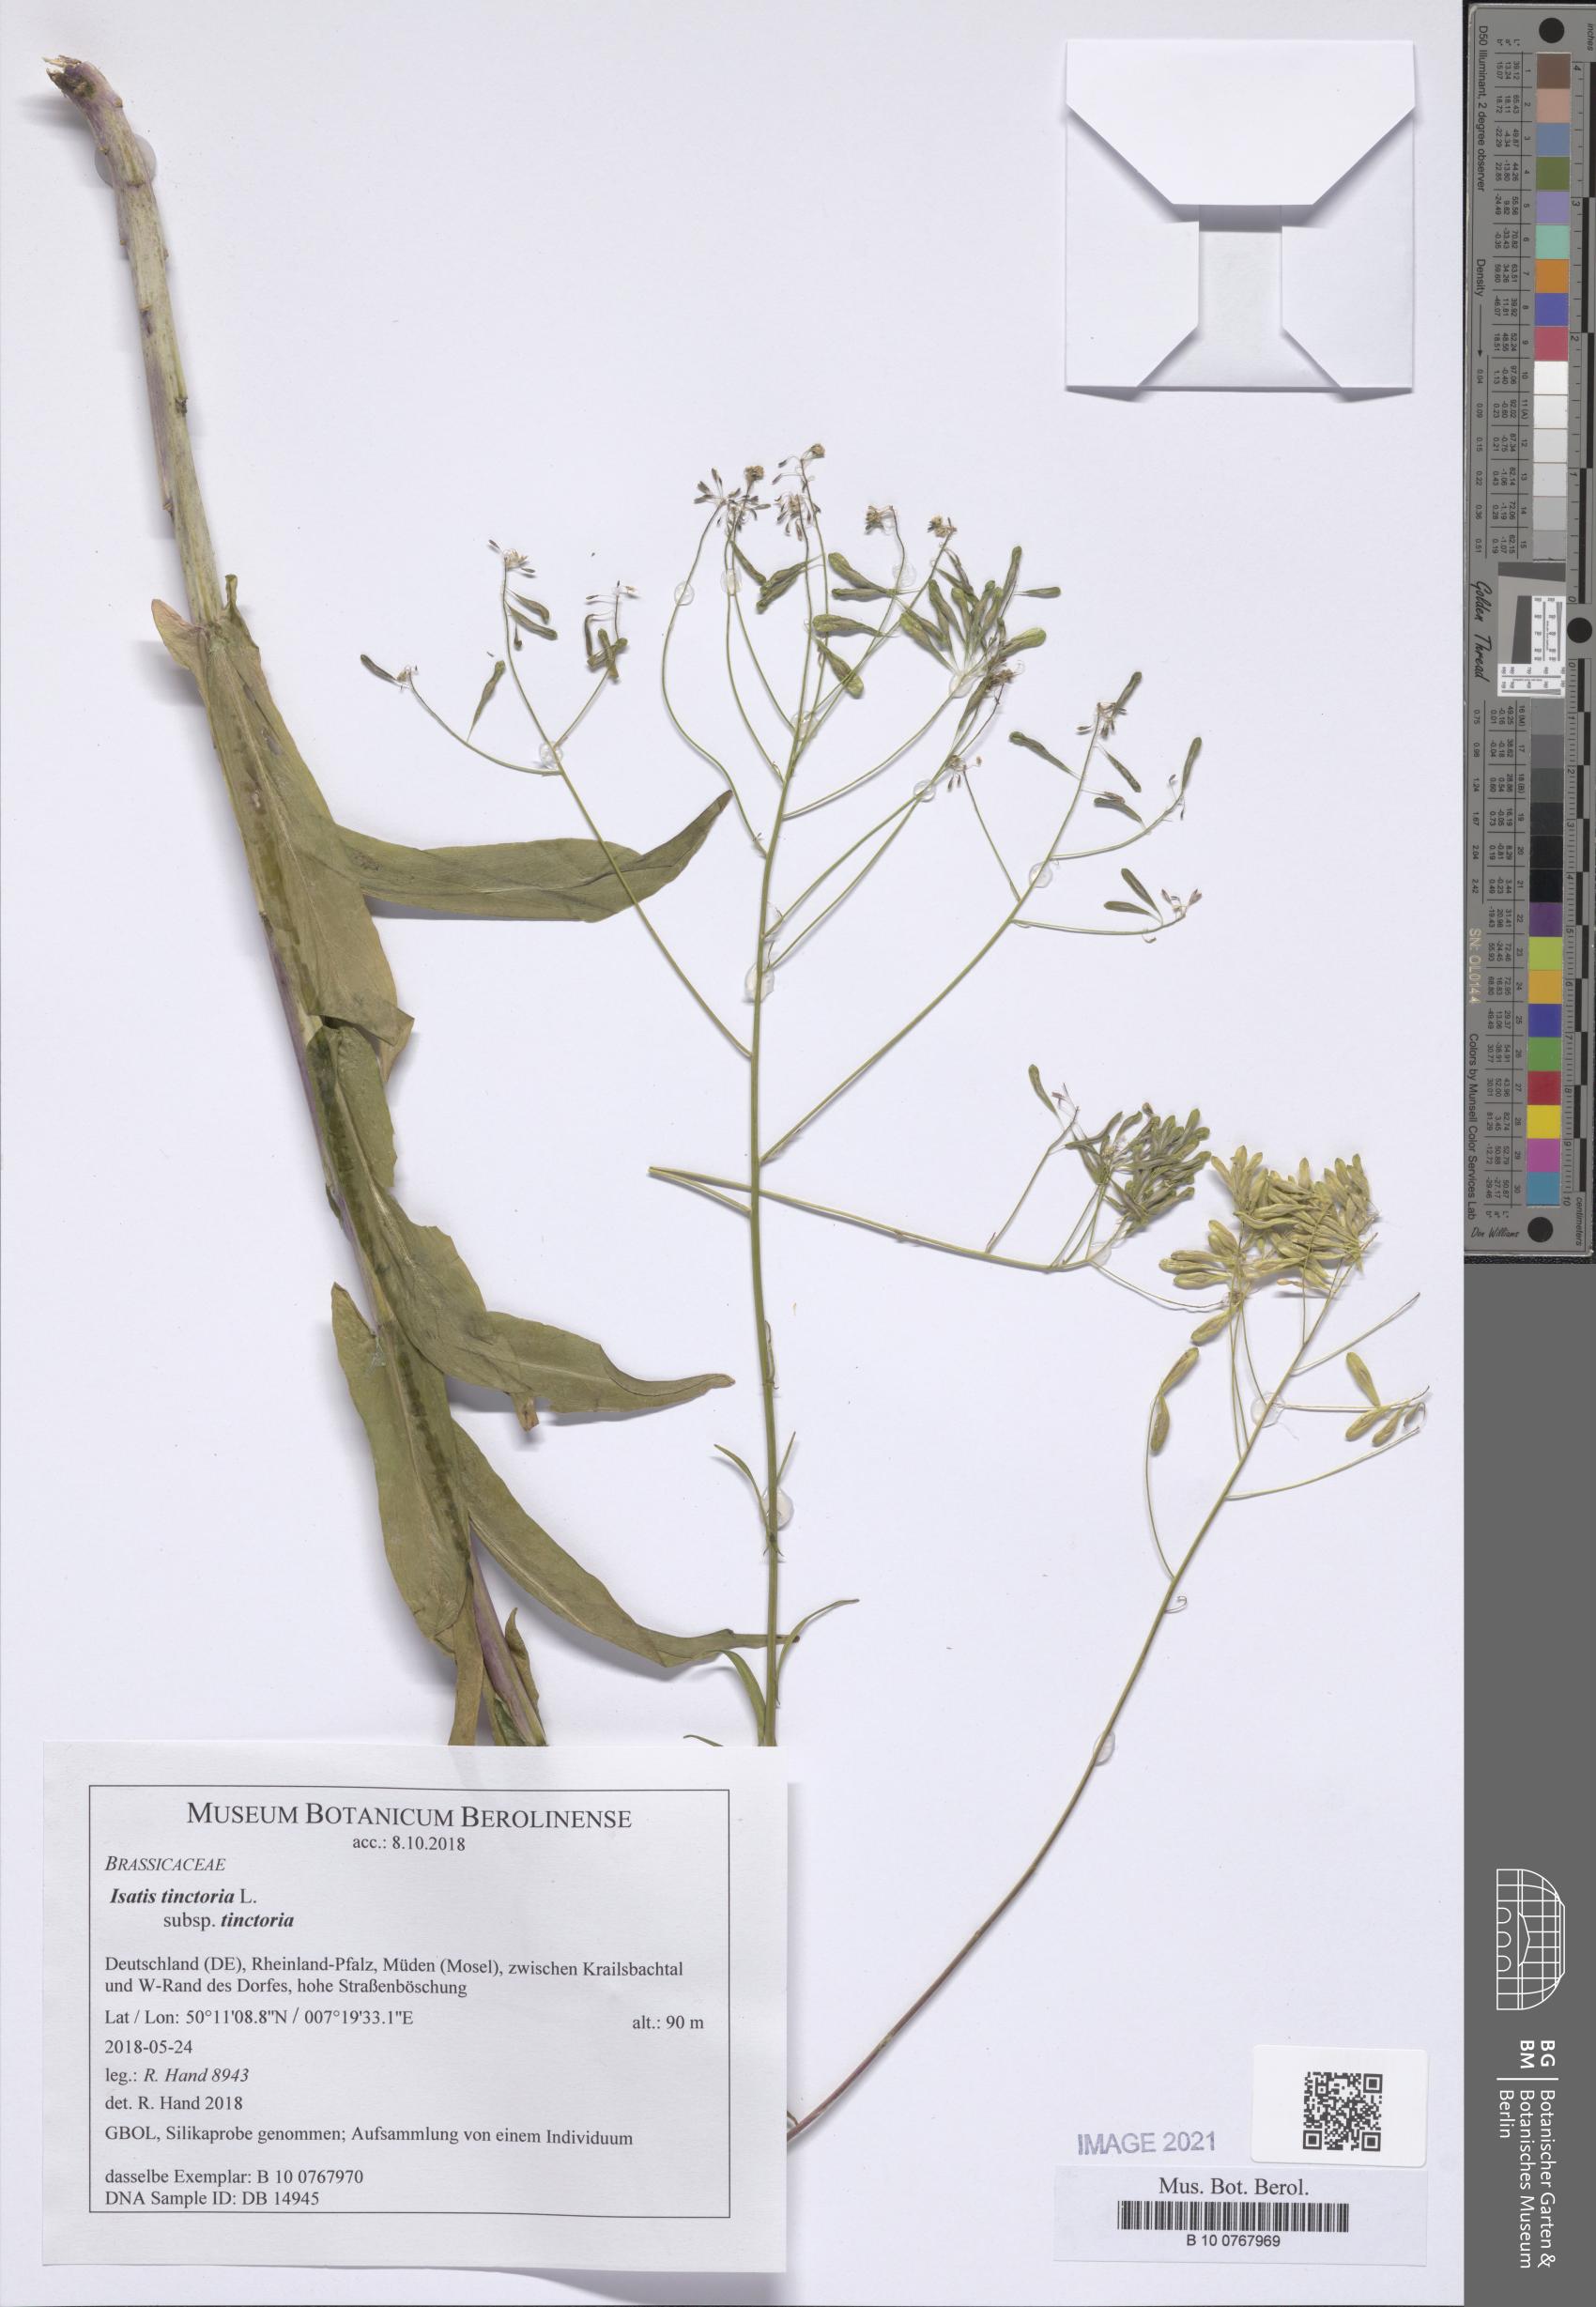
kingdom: Plantae
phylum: Tracheophyta
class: Magnoliopsida
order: Brassicales
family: Brassicaceae
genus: Isatis
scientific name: Isatis tinctoria
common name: Woad
